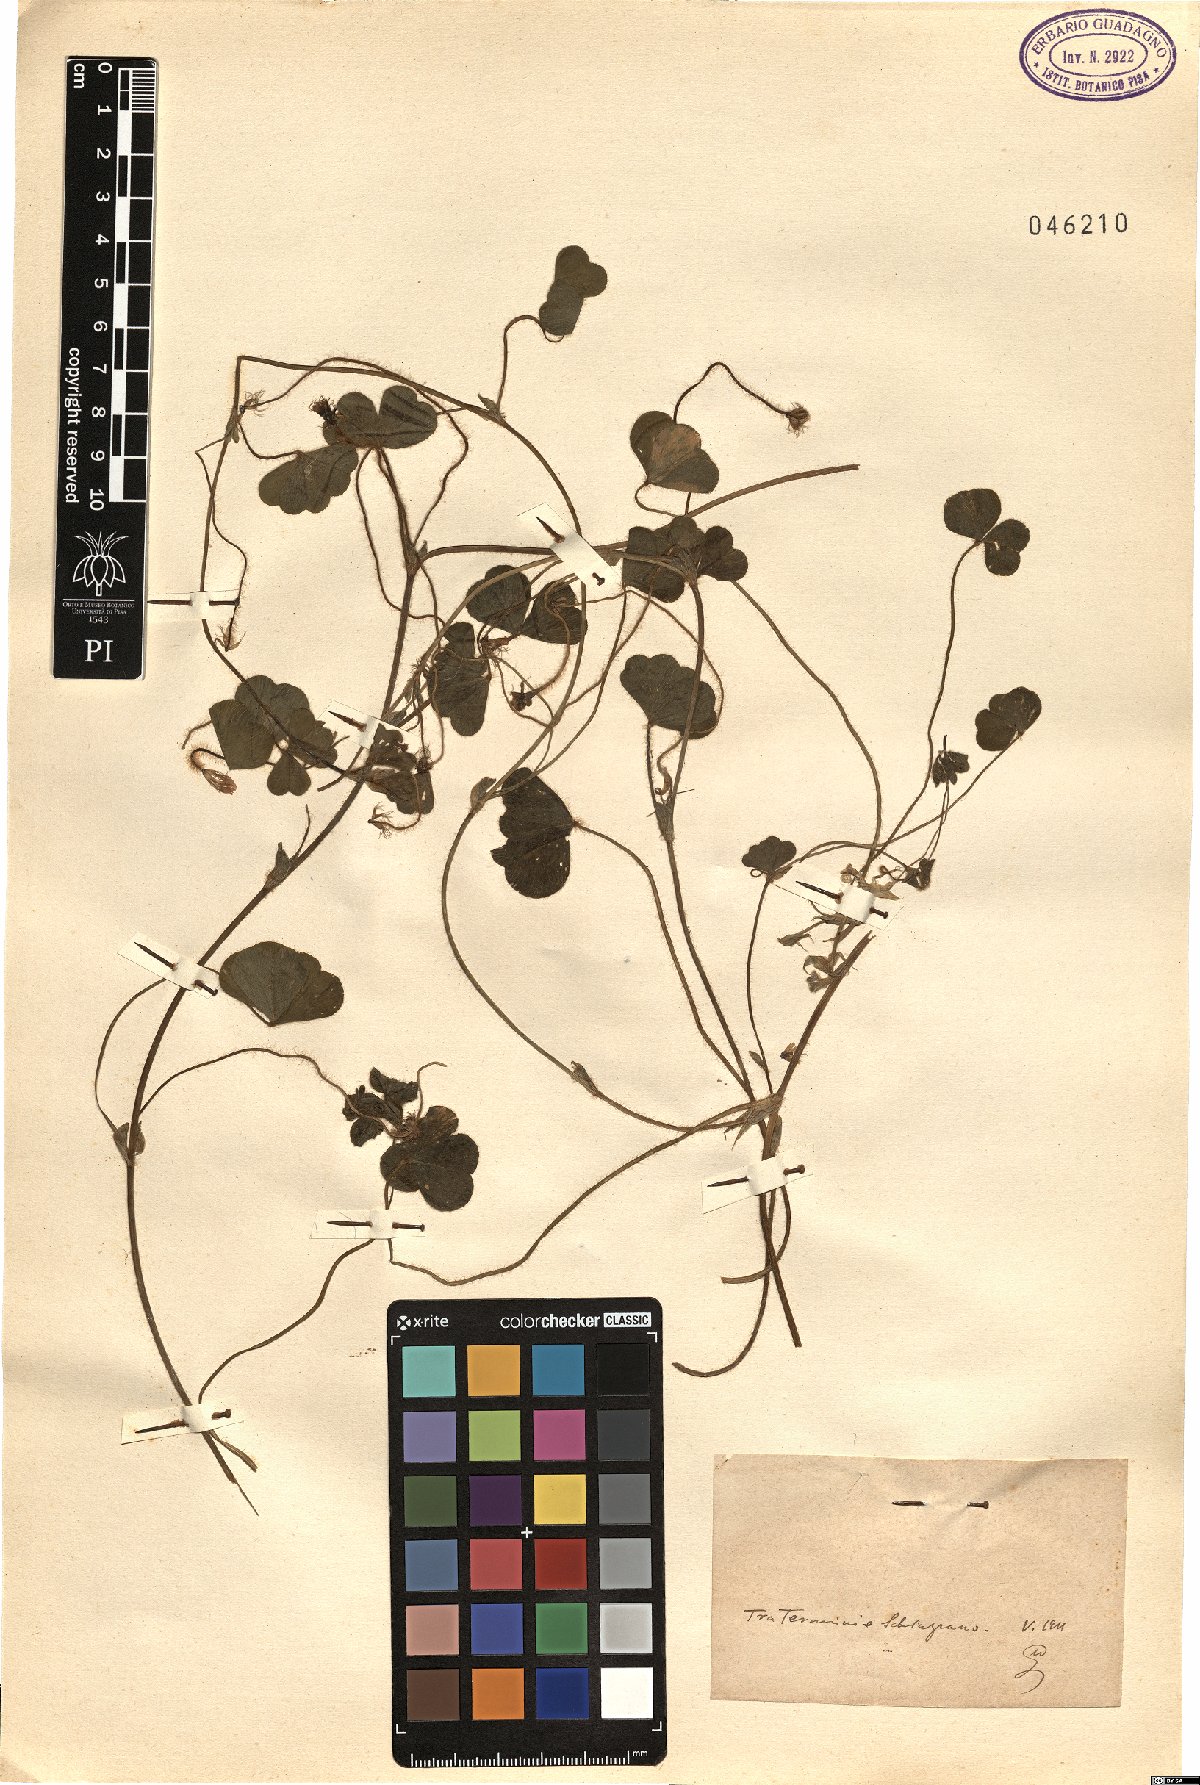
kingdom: Plantae
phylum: Tracheophyta
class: Magnoliopsida
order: Fabales
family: Fabaceae
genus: Trifolium
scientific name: Trifolium
